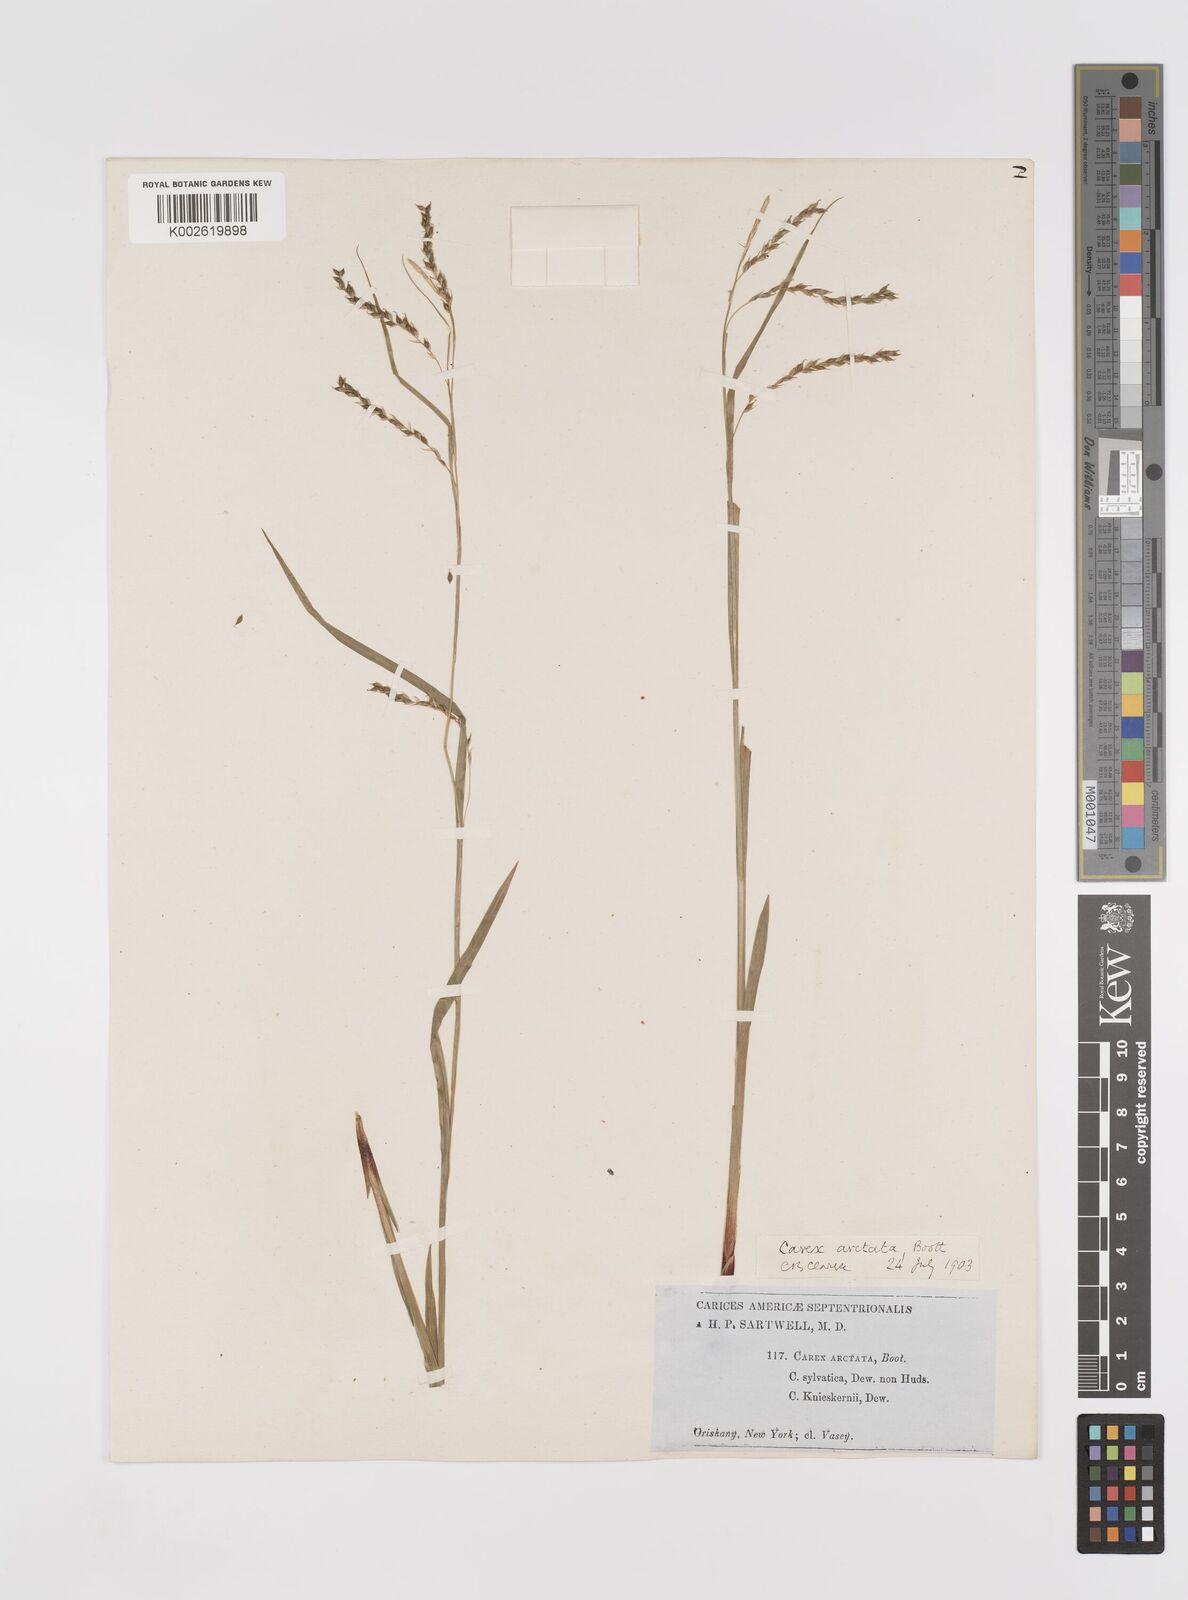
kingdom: Plantae
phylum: Tracheophyta
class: Liliopsida
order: Poales
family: Cyperaceae
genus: Carex
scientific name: Carex arctata
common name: Black sedge
